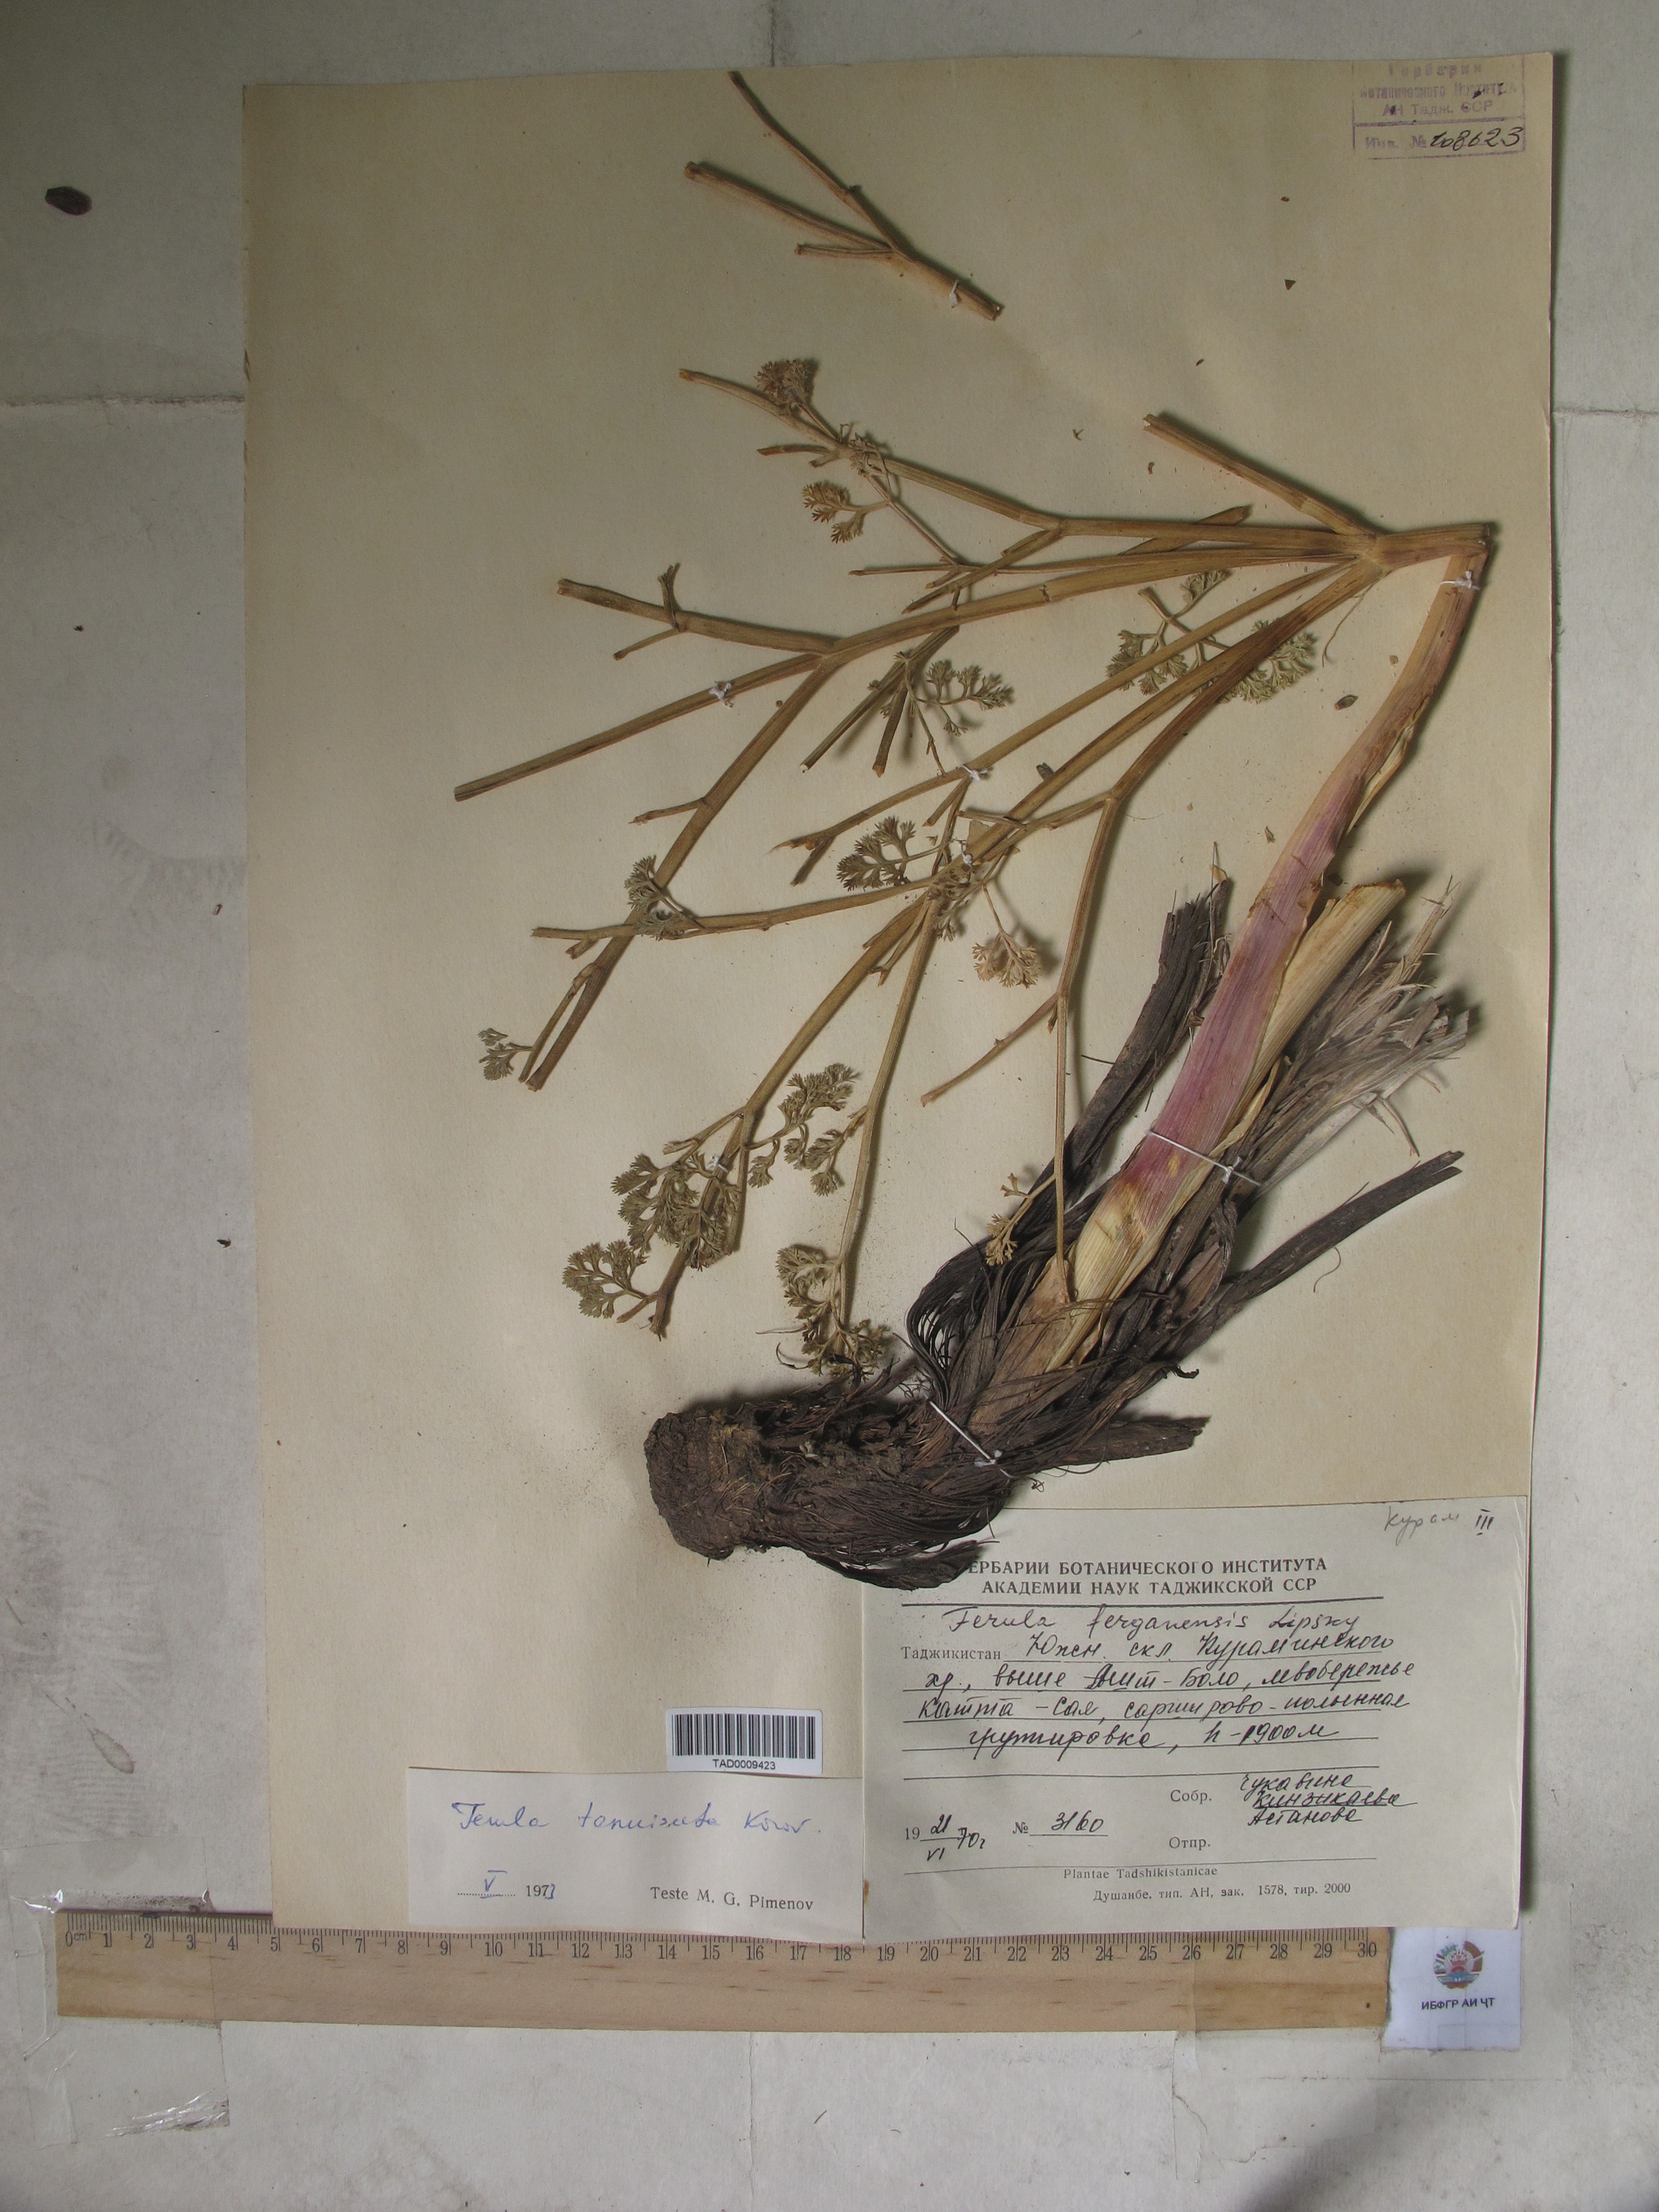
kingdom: Plantae
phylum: Tracheophyta
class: Magnoliopsida
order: Apiales
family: Apiaceae
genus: Ferula
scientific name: Ferula tenuisecta
